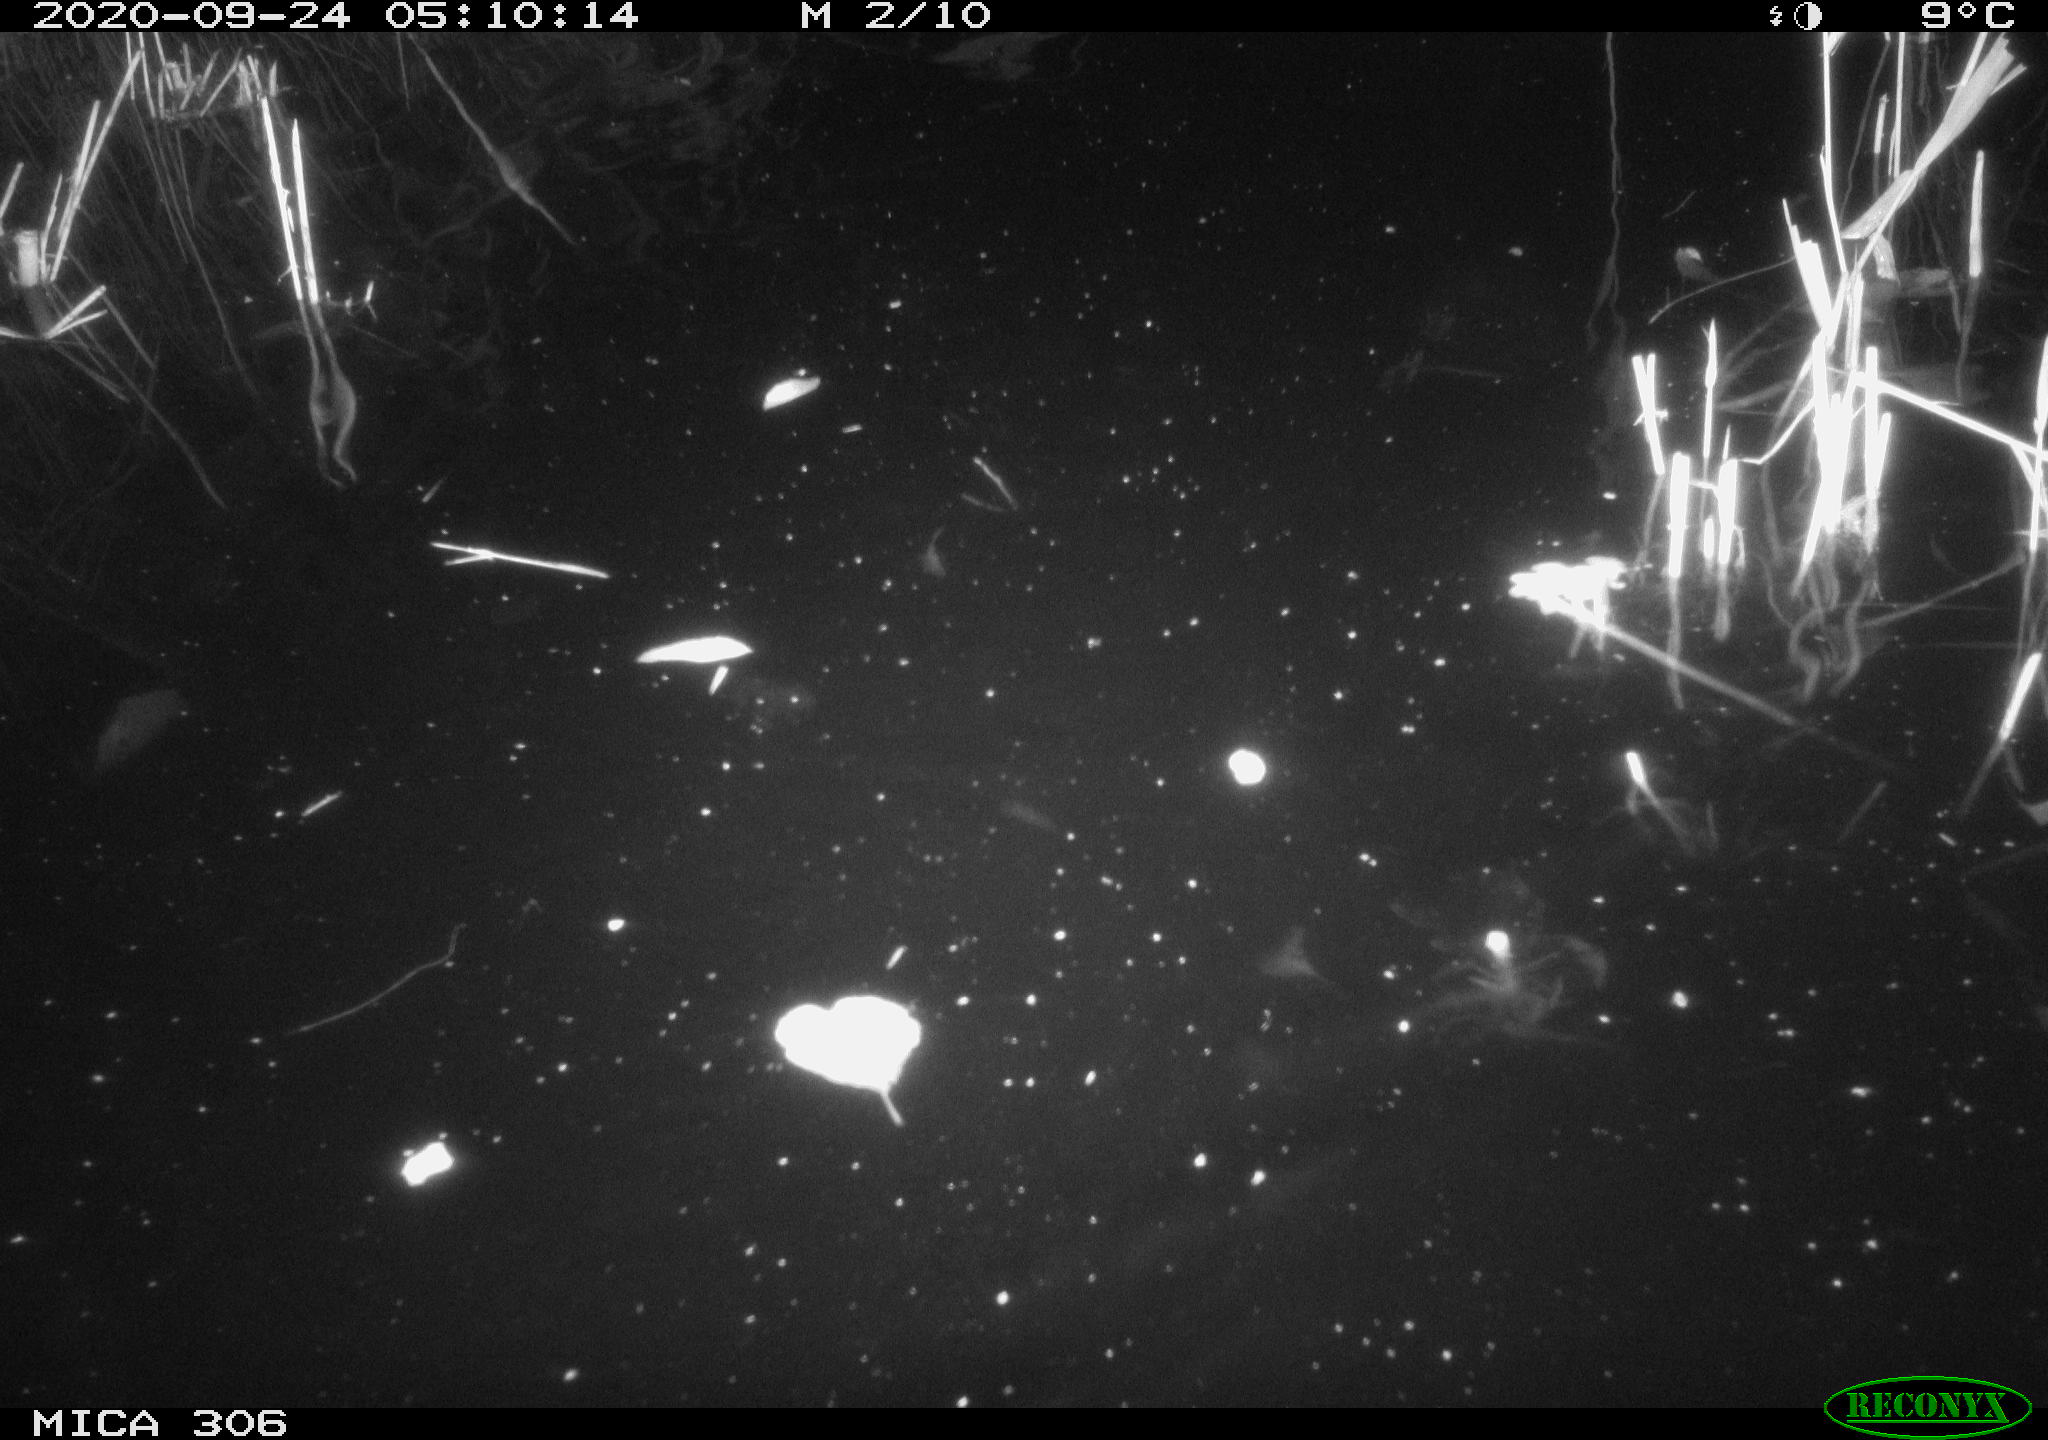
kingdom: Animalia
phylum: Chordata
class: Mammalia
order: Rodentia
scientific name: Rodentia
